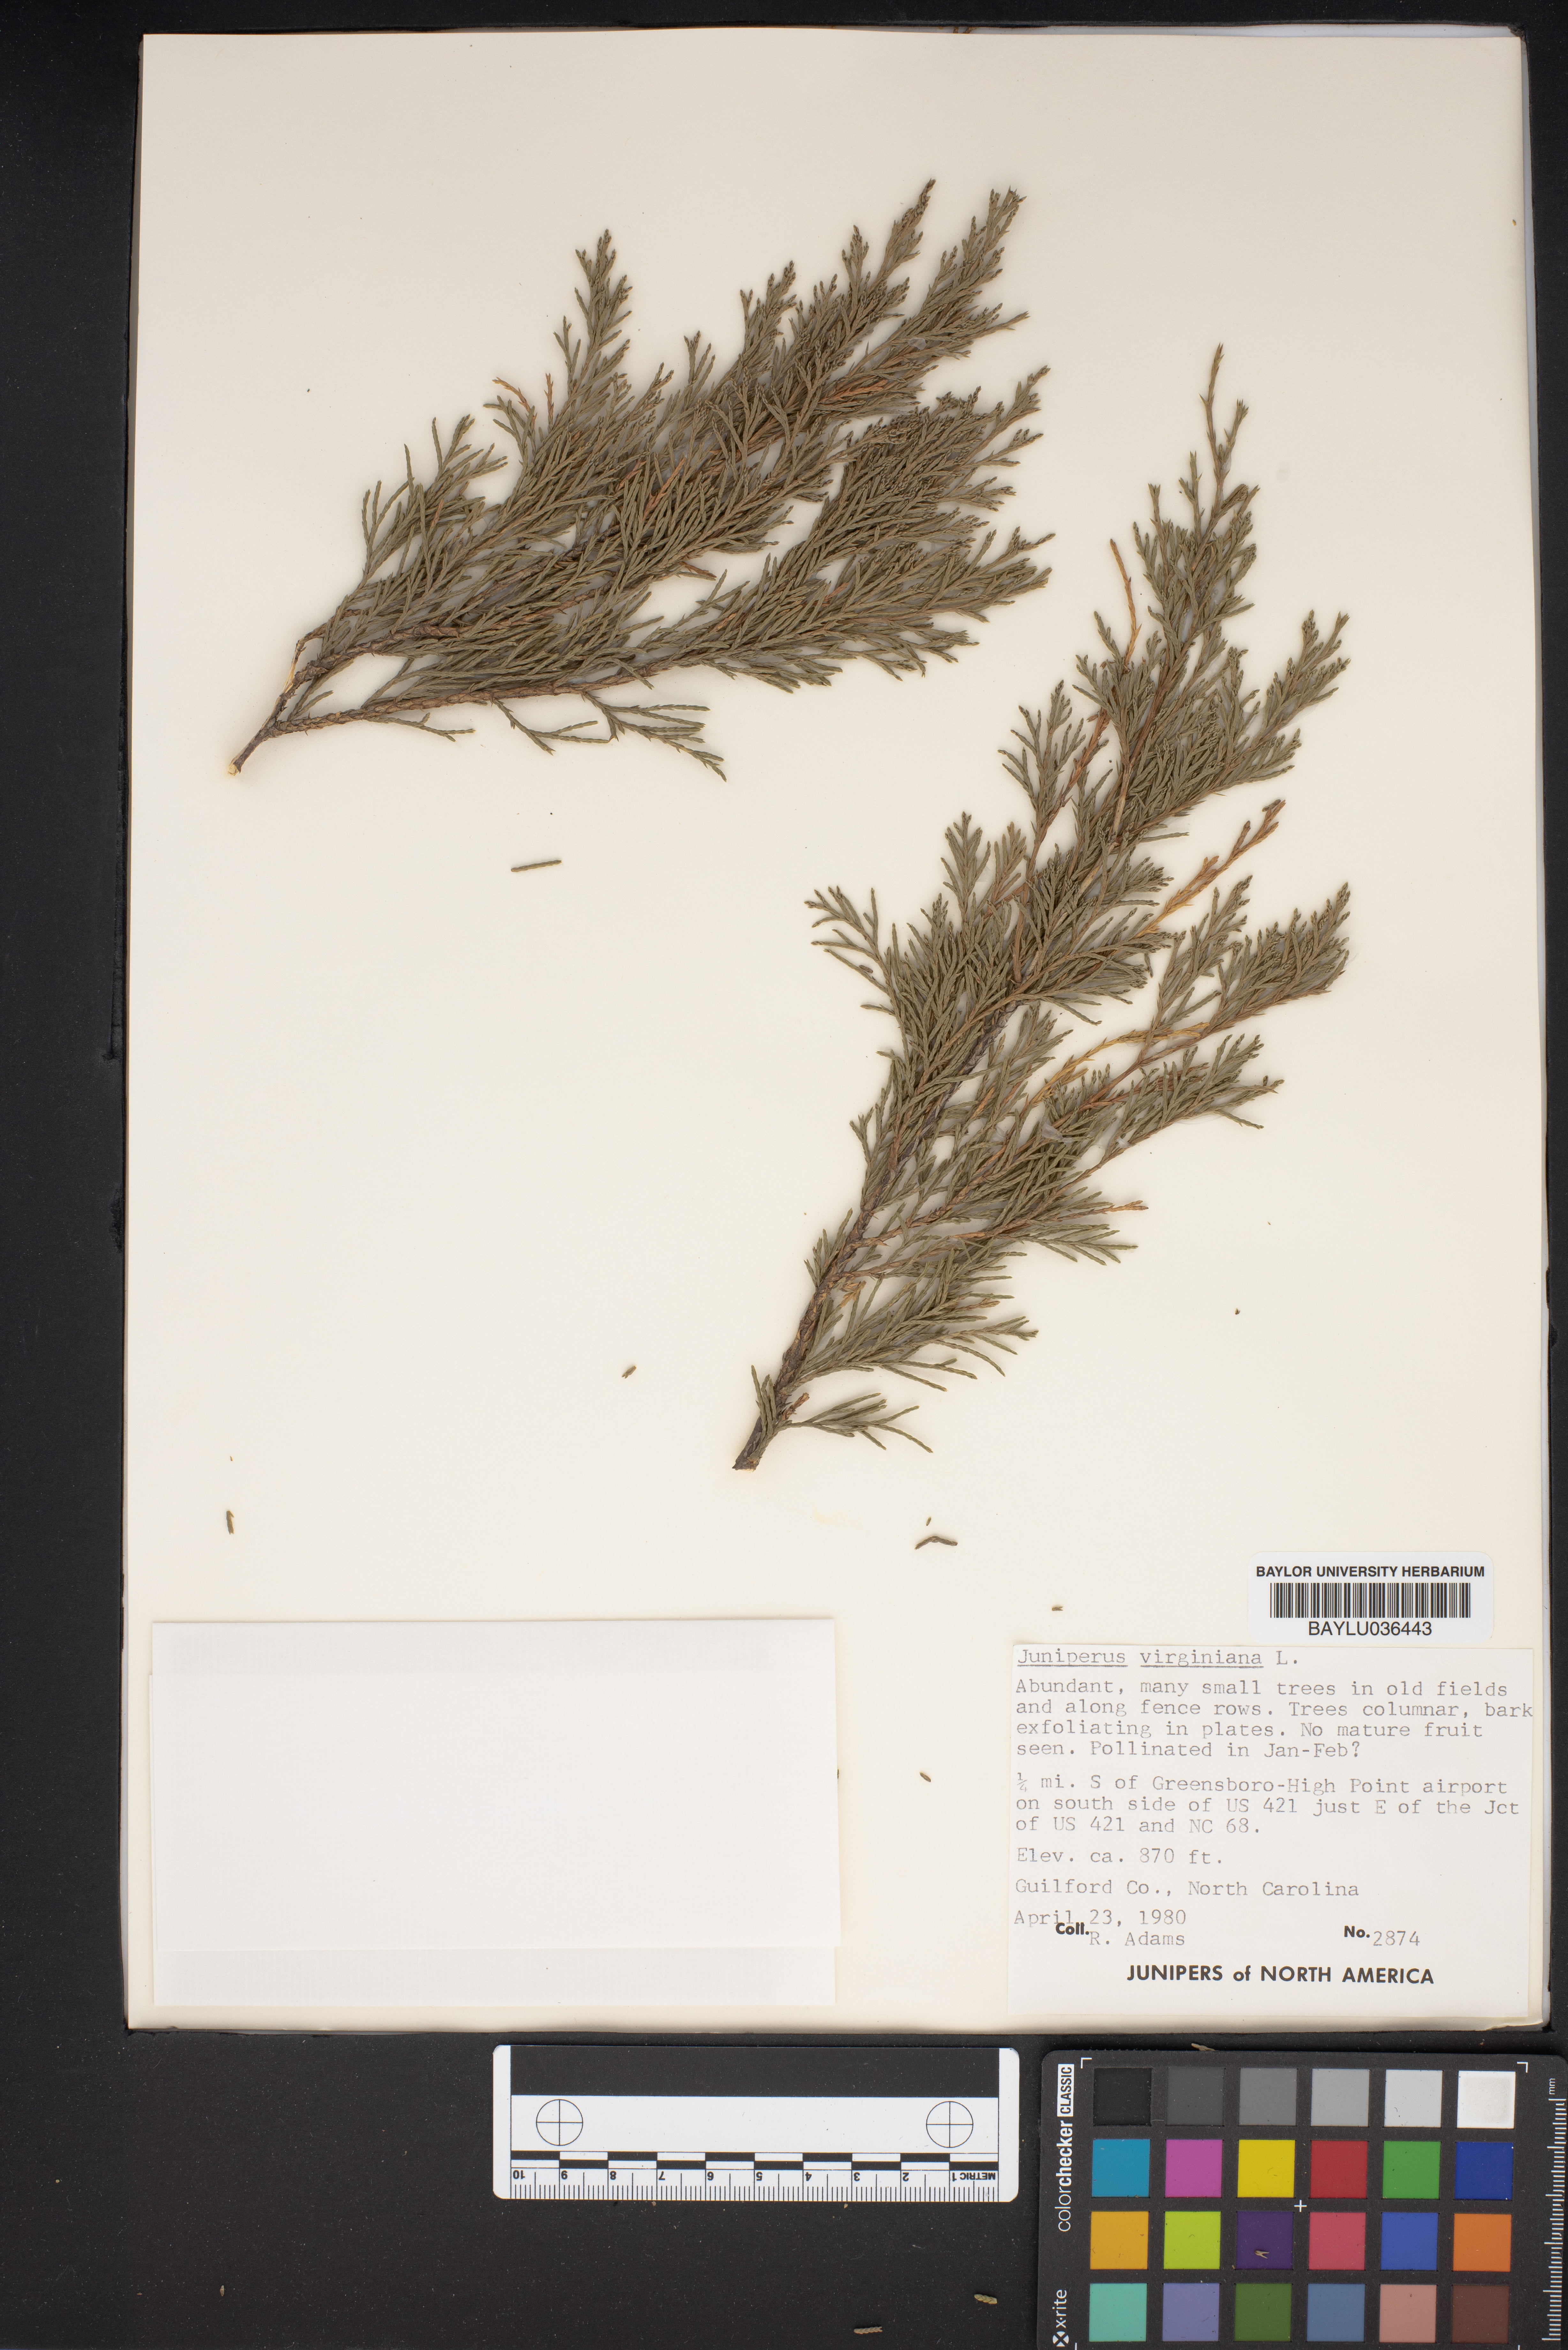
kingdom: Plantae
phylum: Tracheophyta
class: Pinopsida
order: Pinales
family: Cupressaceae
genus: Juniperus
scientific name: Juniperus virginiana
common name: Red juniper
